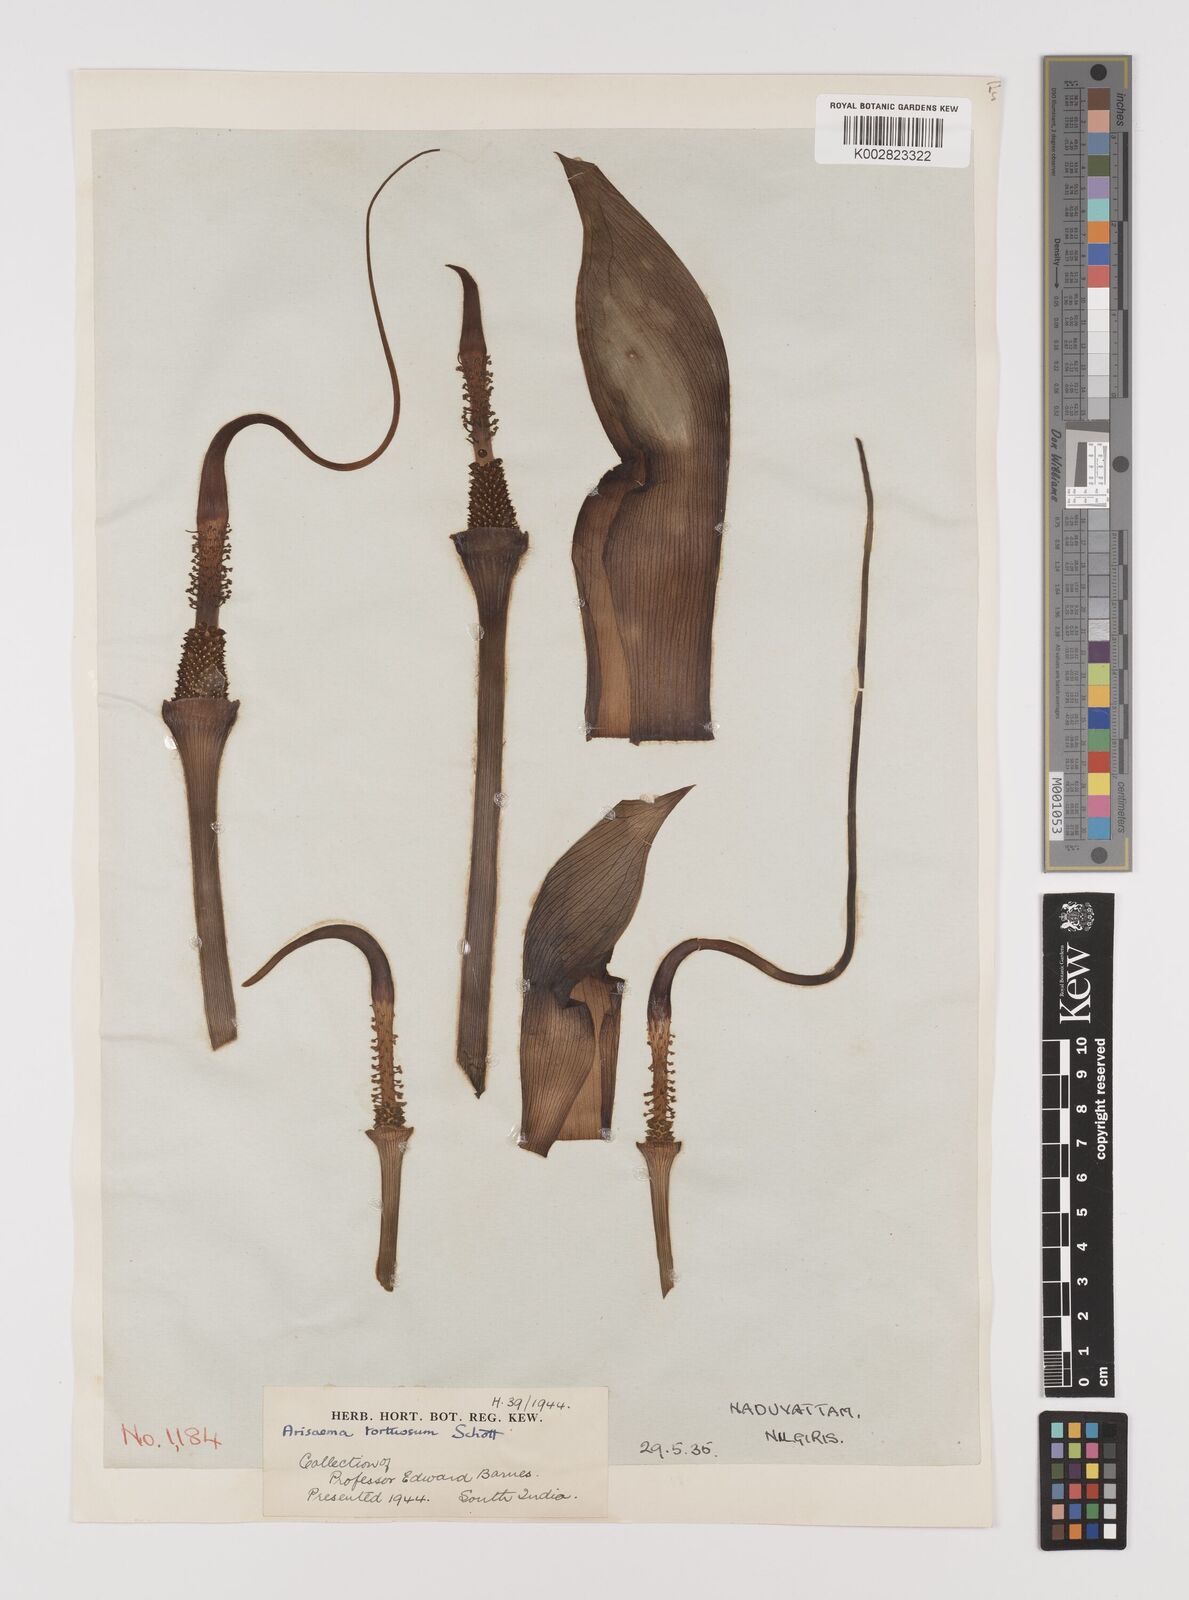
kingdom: Plantae
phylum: Tracheophyta
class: Liliopsida
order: Alismatales
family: Araceae
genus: Arisaema
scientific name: Arisaema tortuosum
